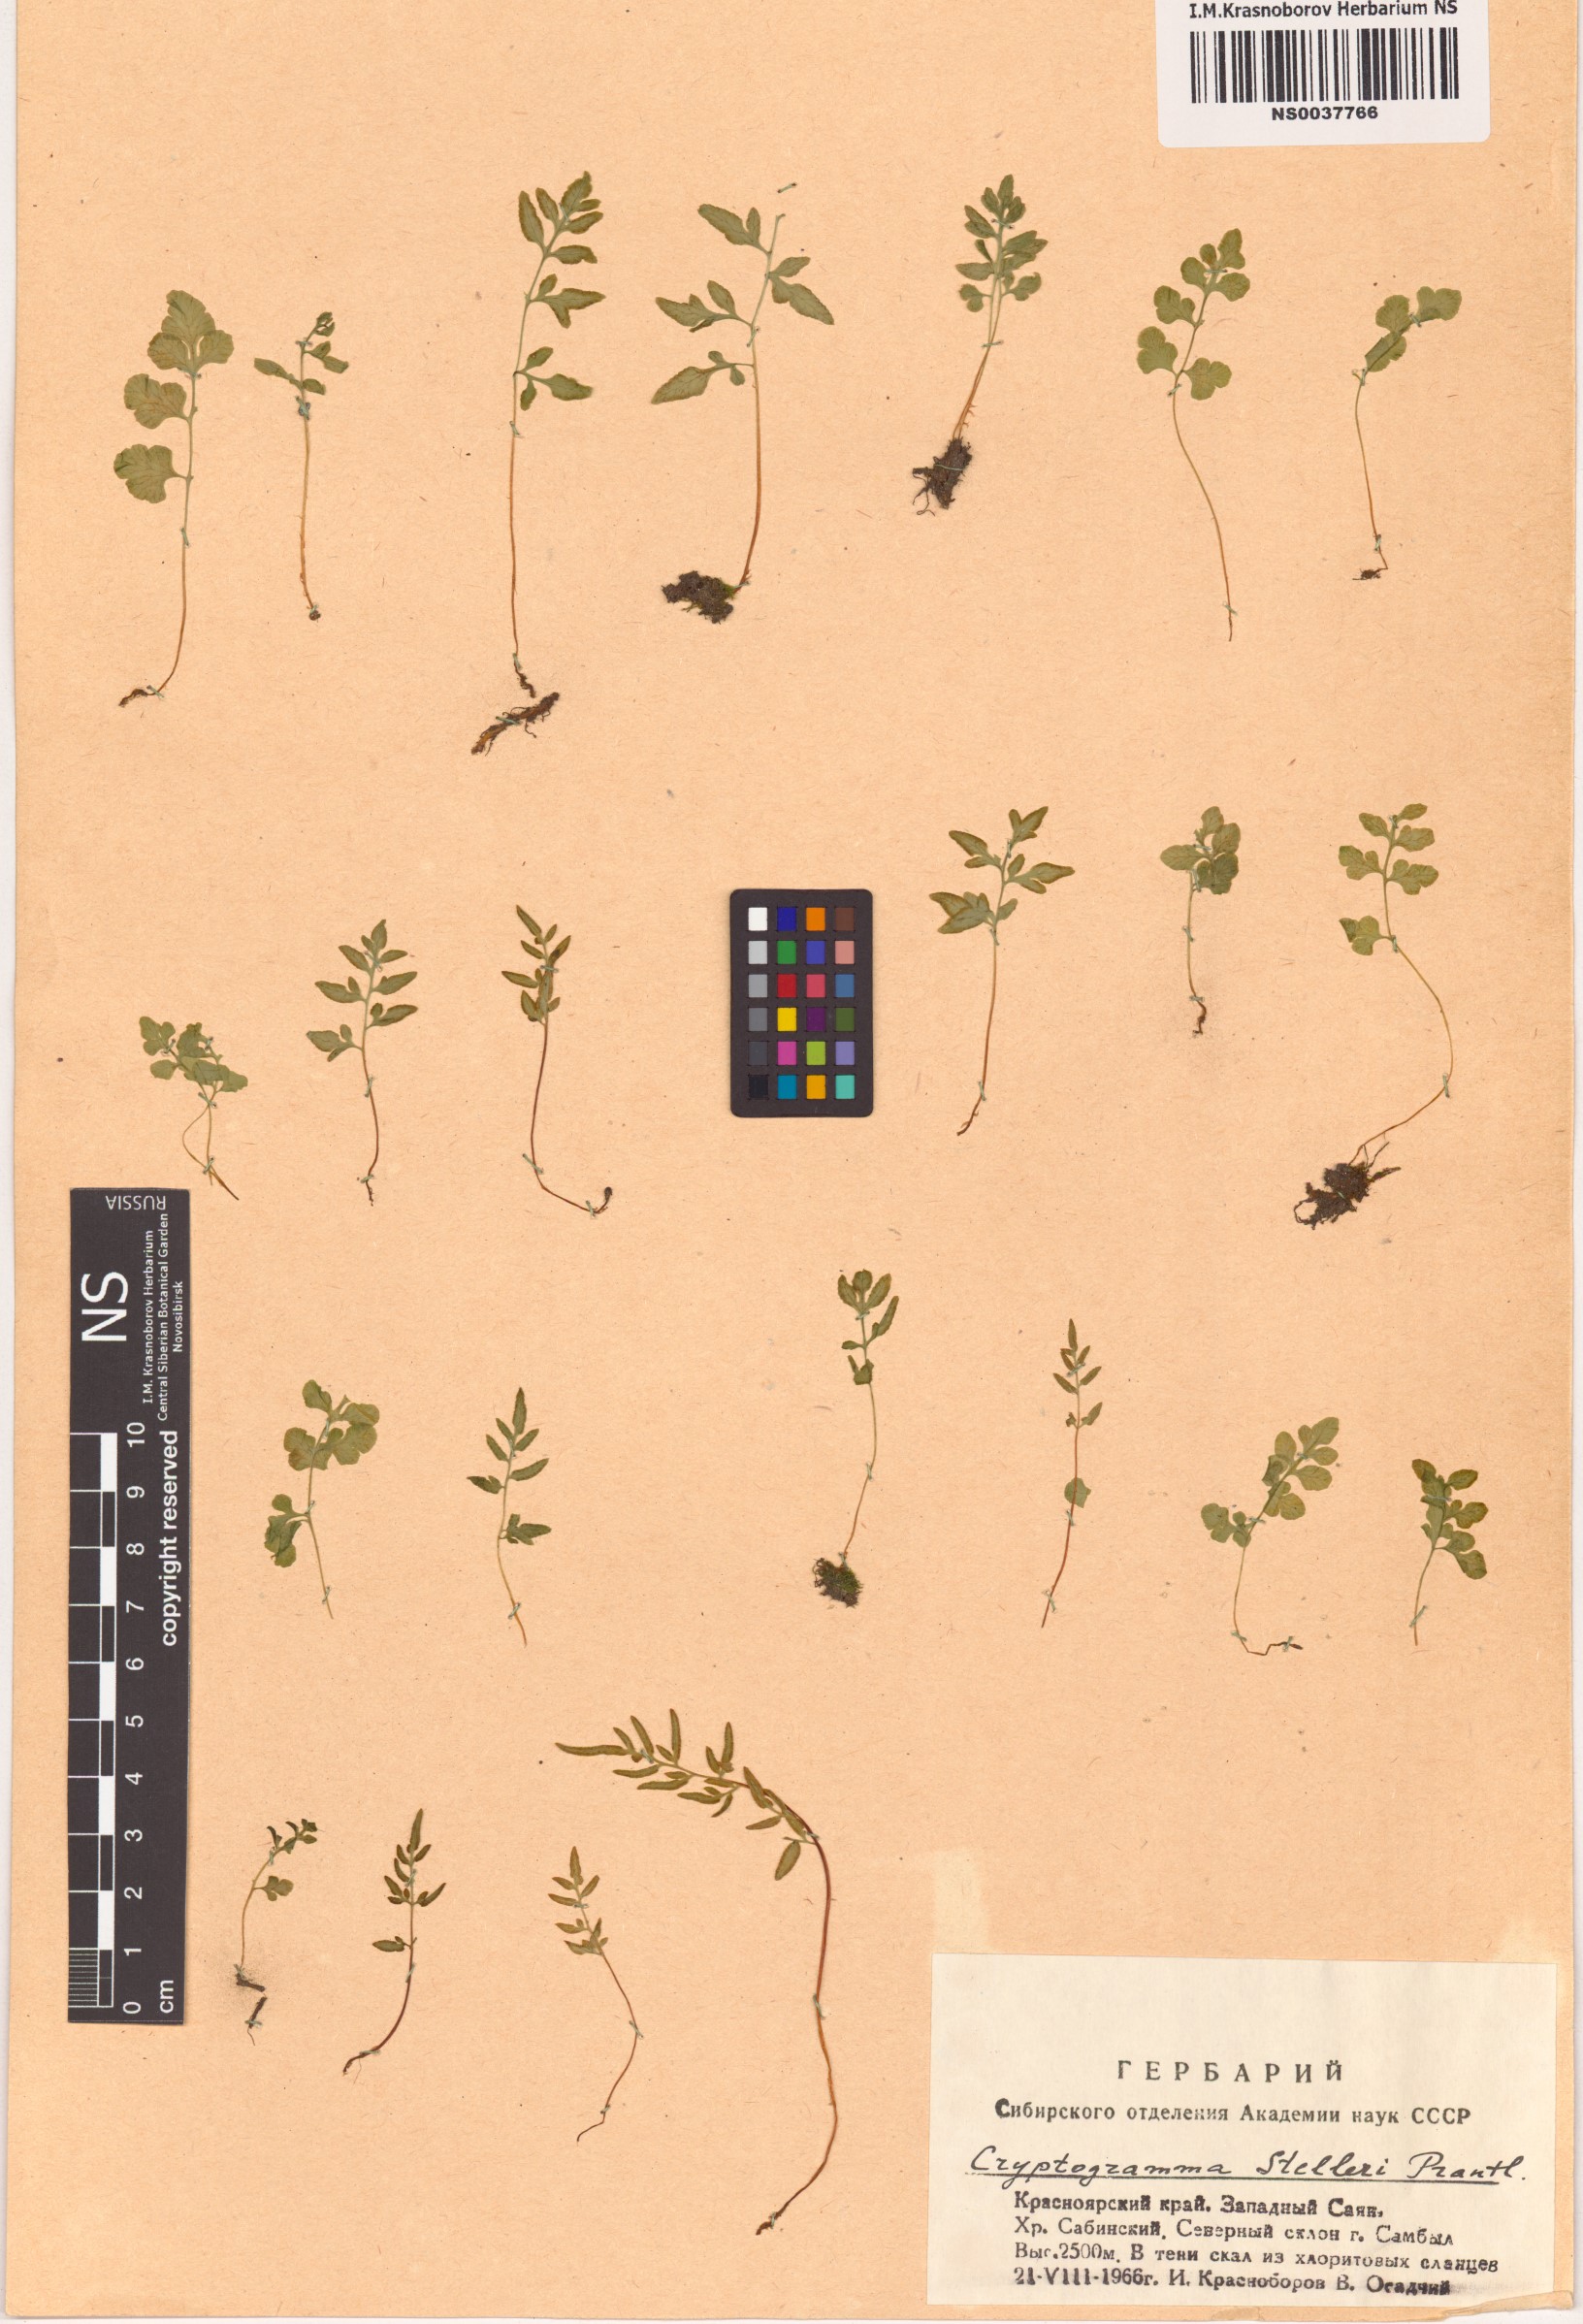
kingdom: Plantae
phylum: Tracheophyta
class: Polypodiopsida
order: Polypodiales
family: Pteridaceae
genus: Cryptogramma
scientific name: Cryptogramma stelleri
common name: Cliff-brake
